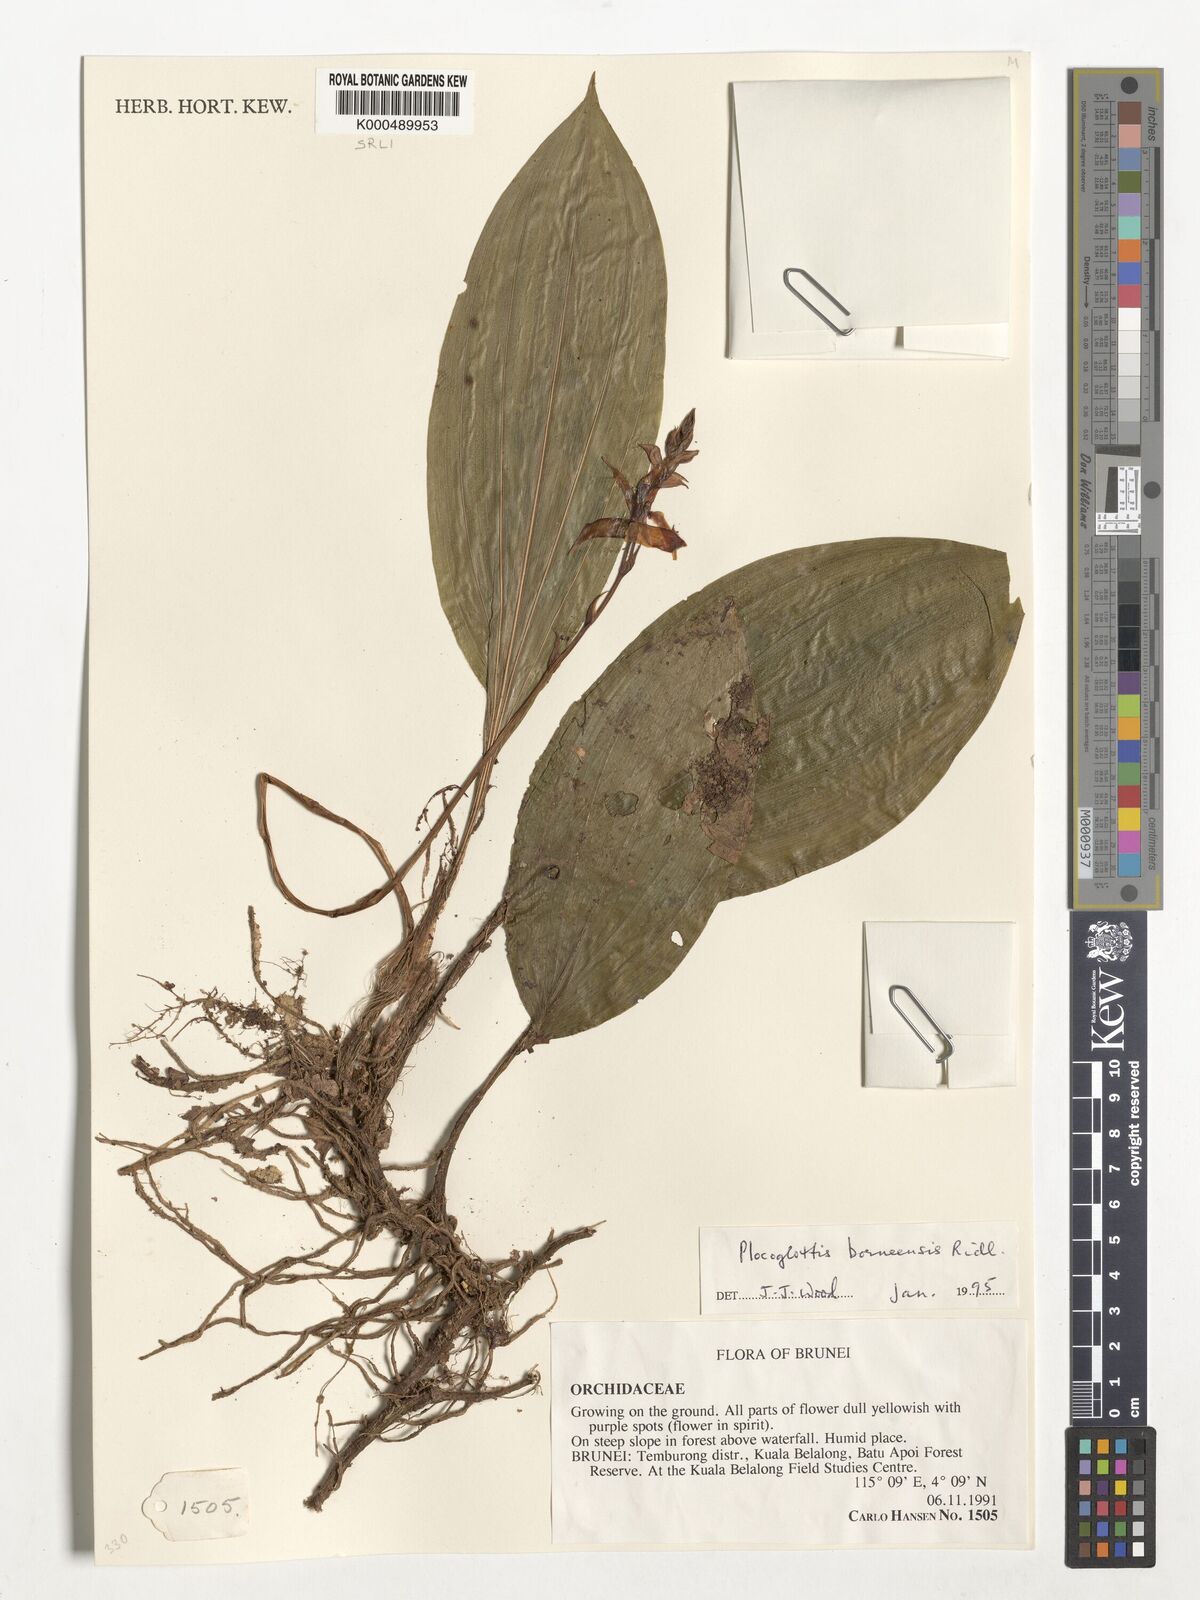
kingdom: Plantae
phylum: Tracheophyta
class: Liliopsida
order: Asparagales
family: Orchidaceae
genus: Plocoglottis
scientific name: Plocoglottis borneensis
